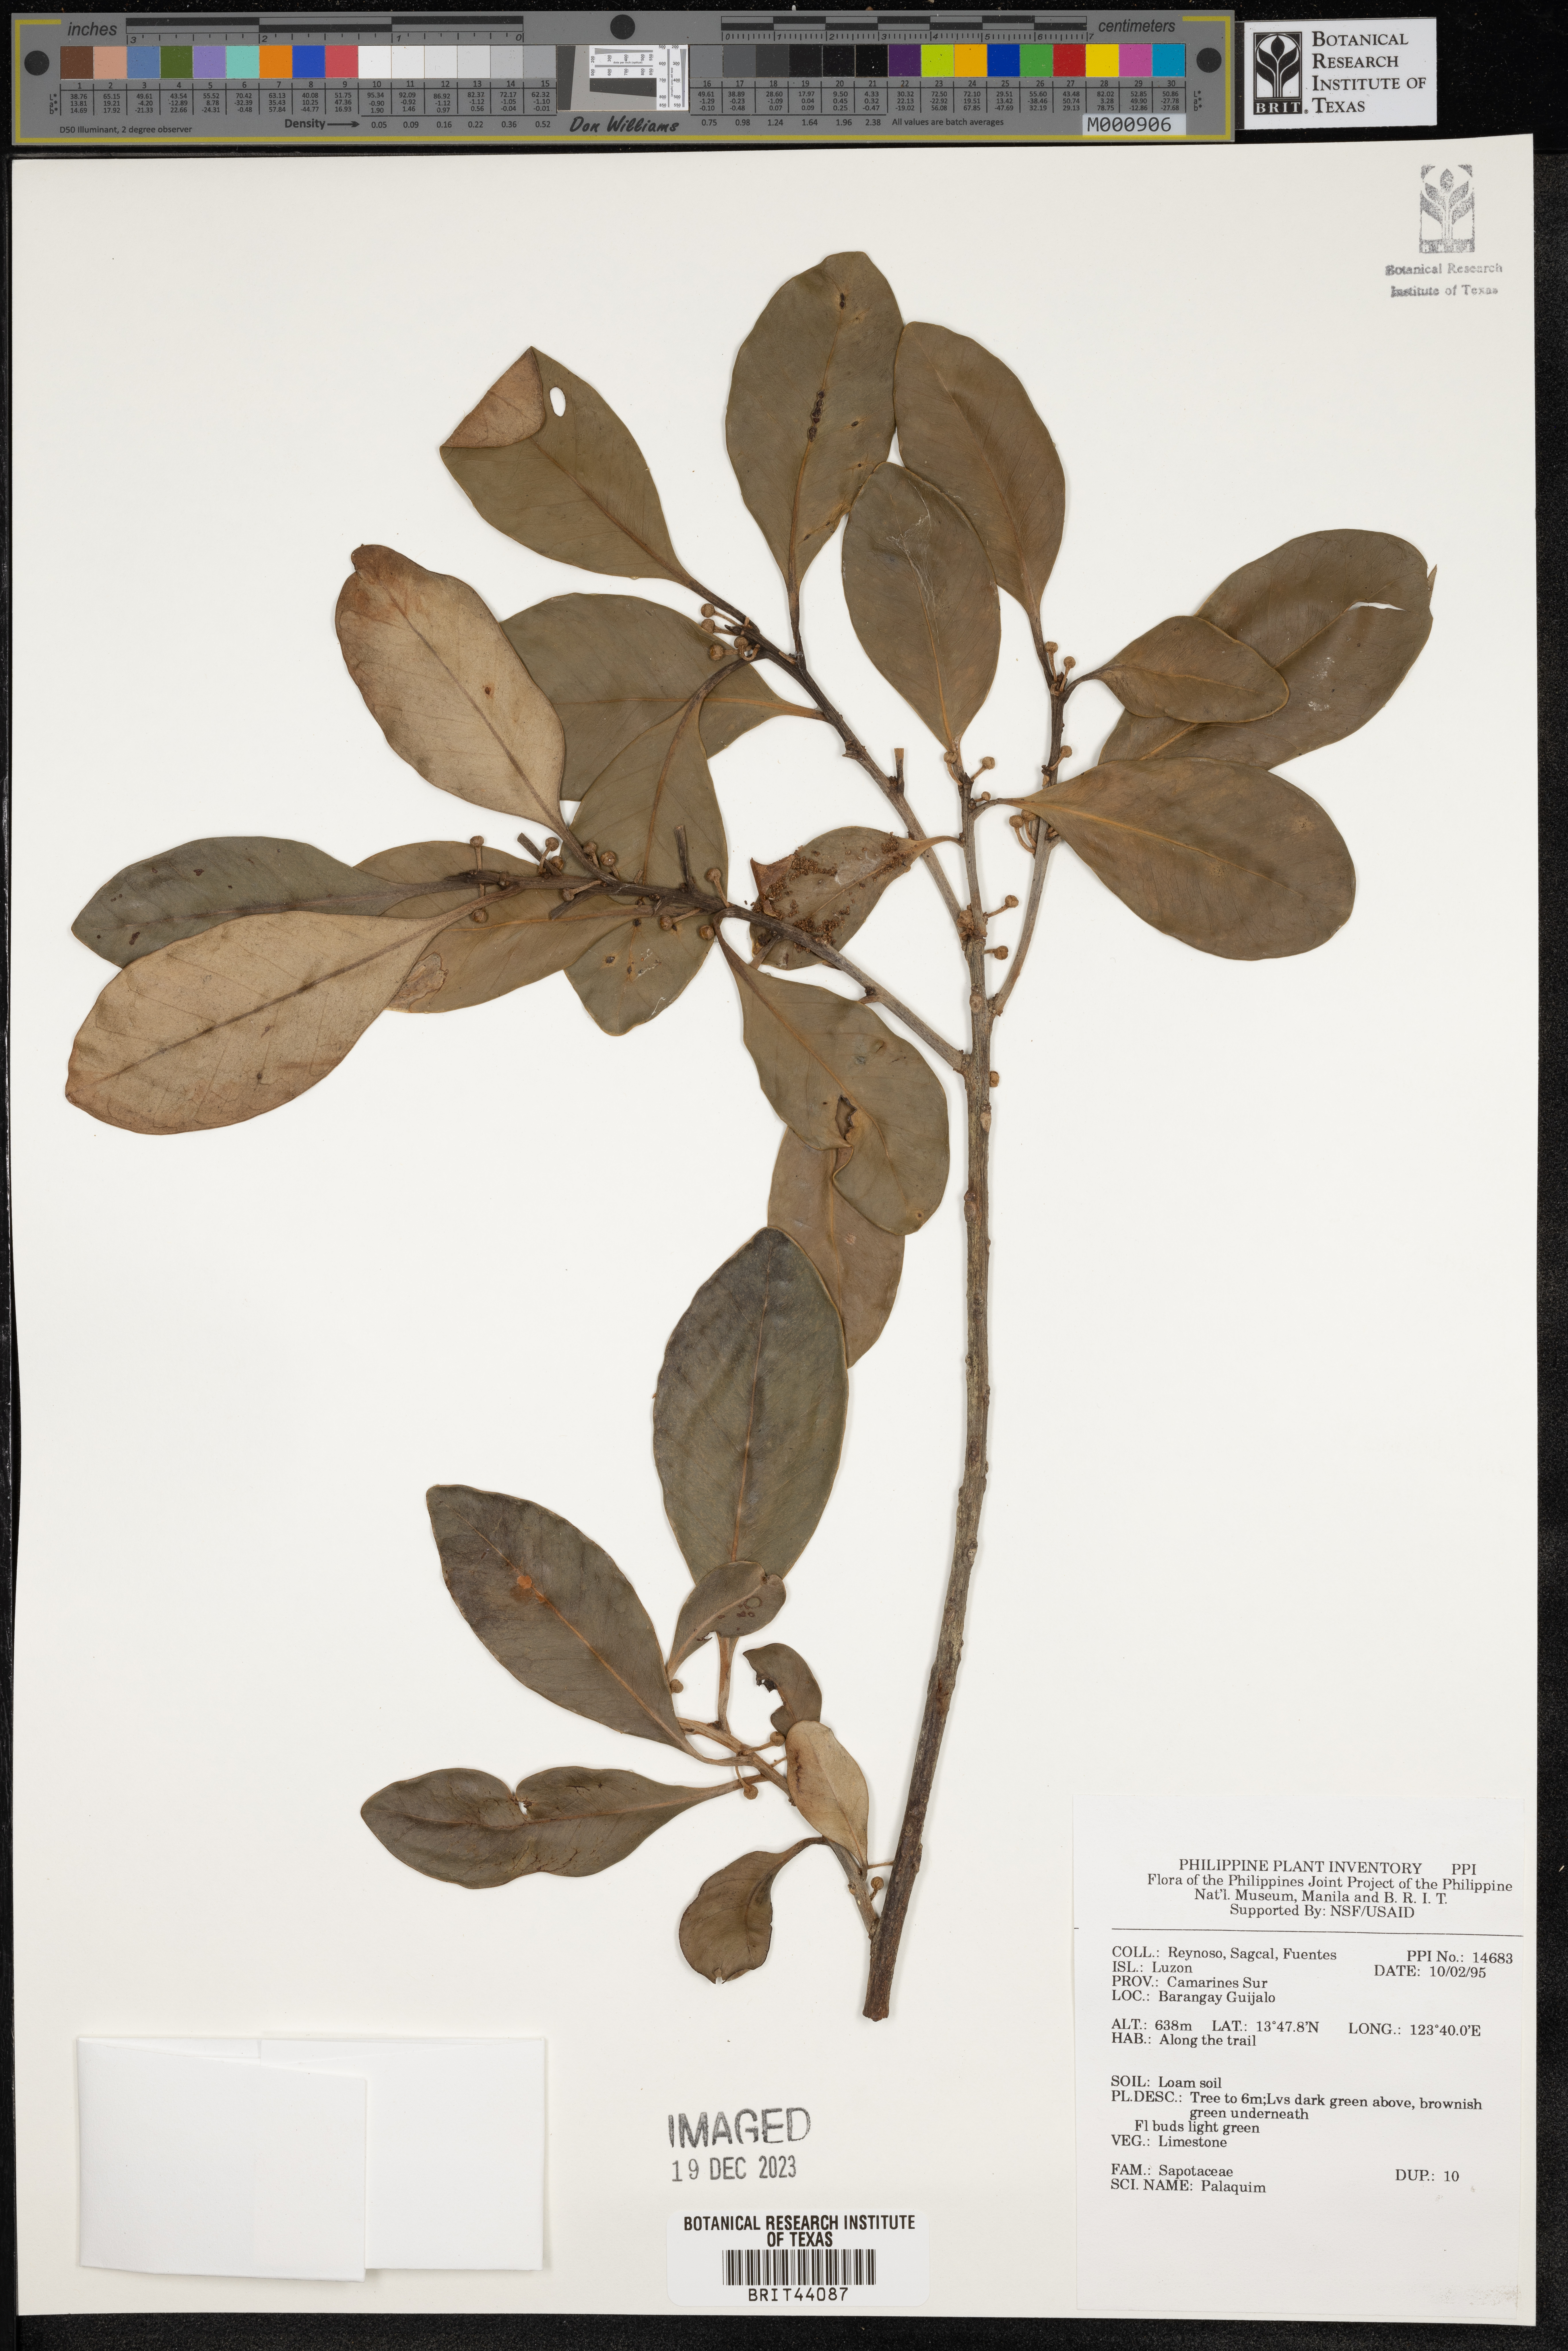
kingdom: Plantae
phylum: Tracheophyta
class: Magnoliopsida
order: Ericales
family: Sapotaceae
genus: Palaquium
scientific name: Palaquium
